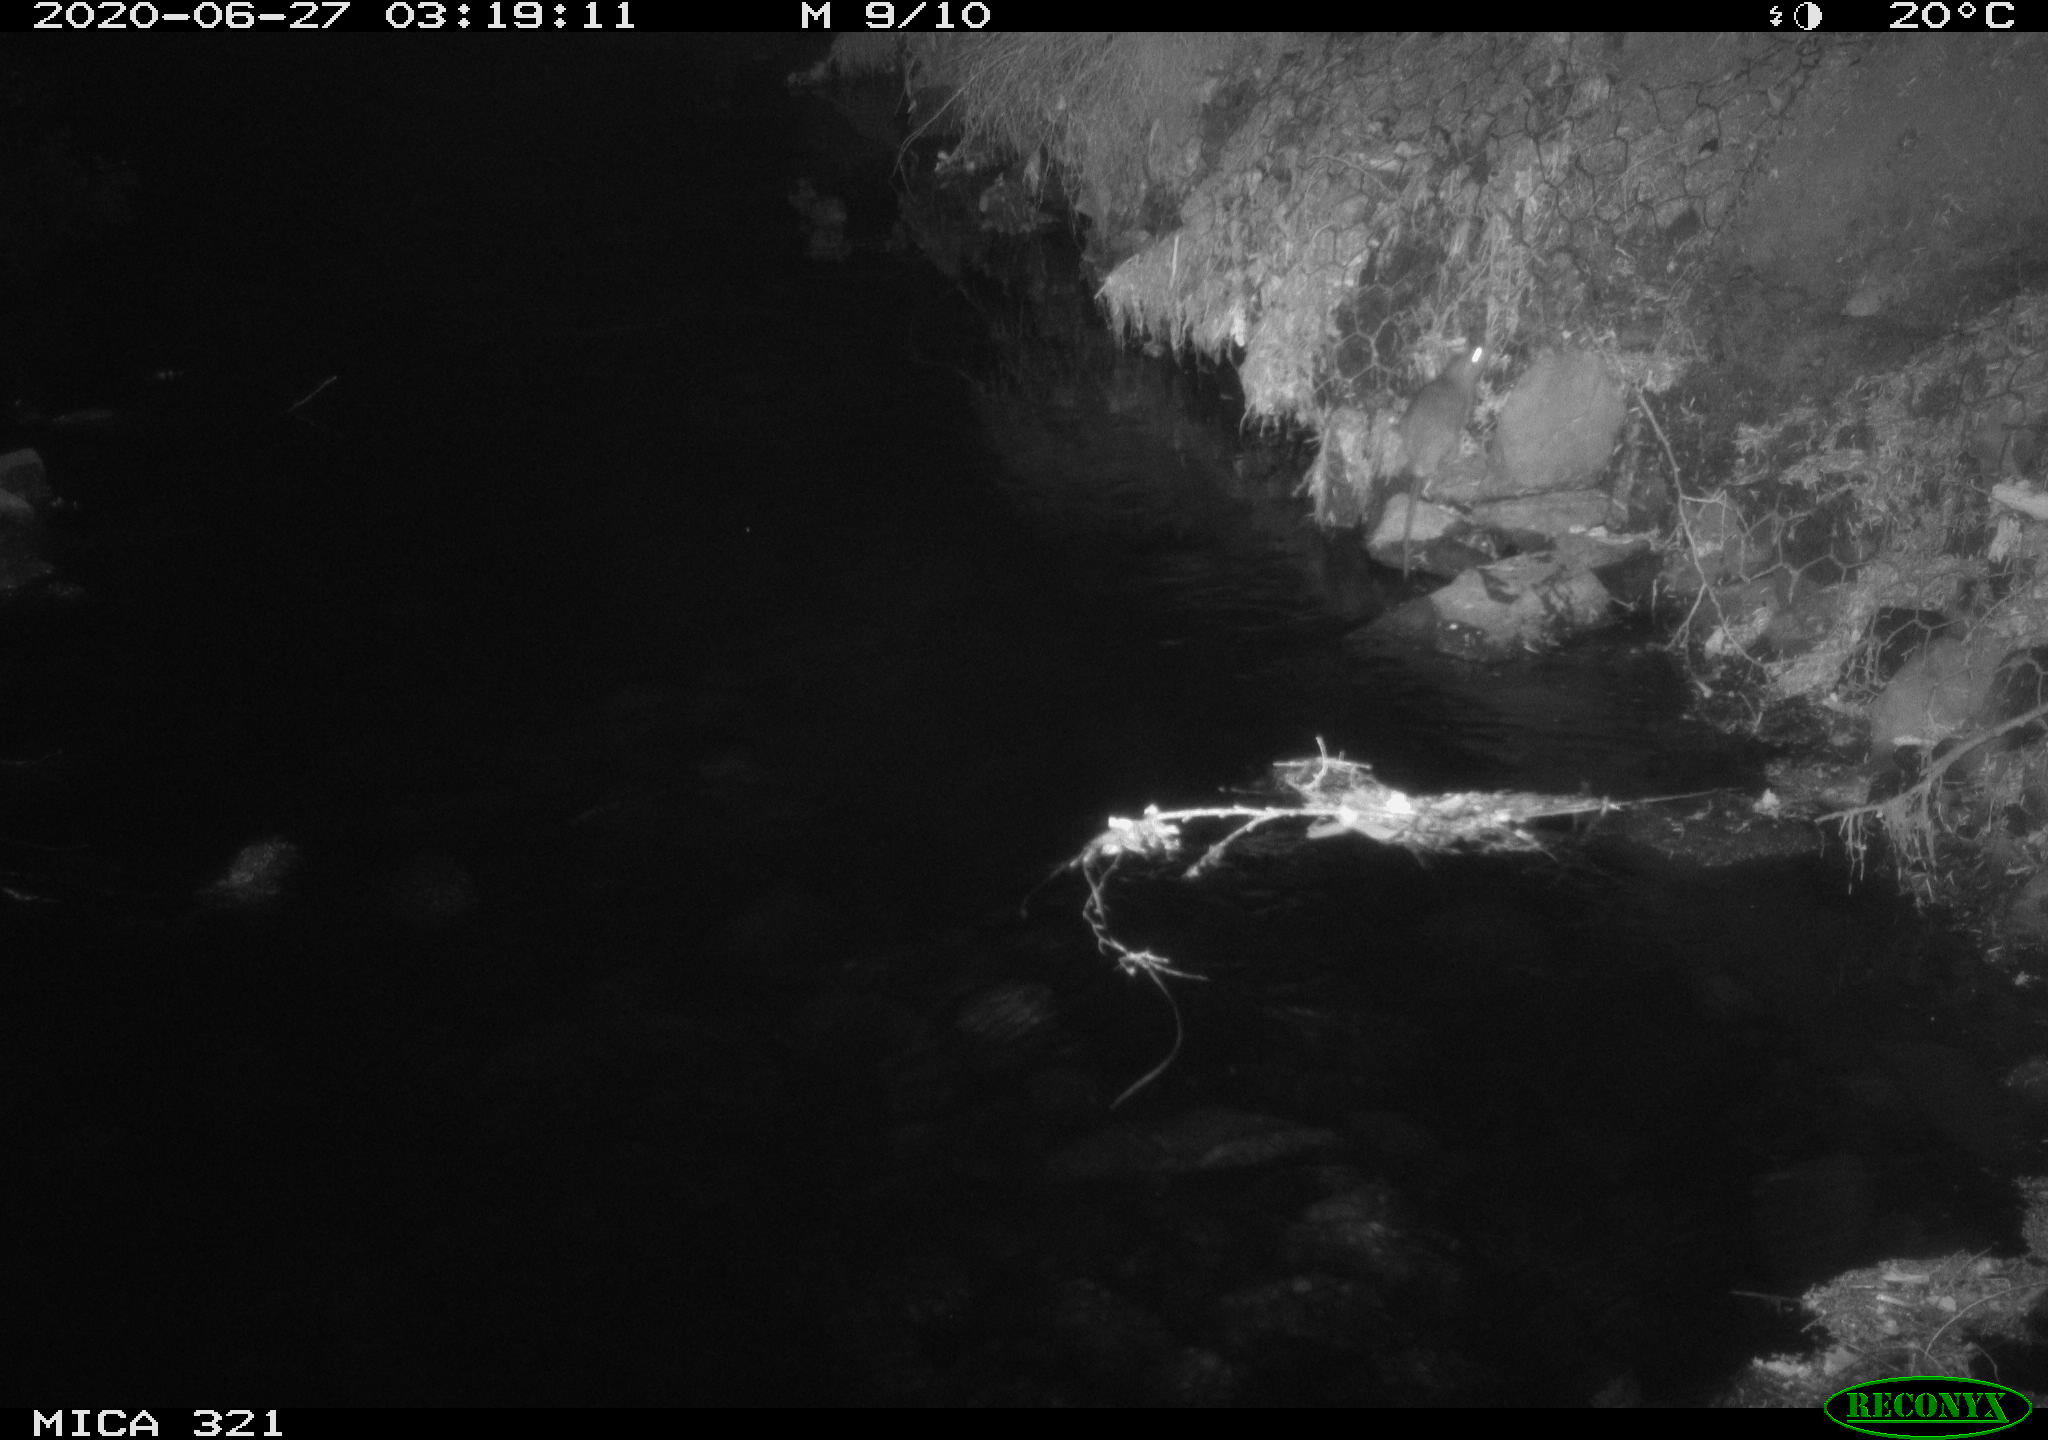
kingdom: Animalia
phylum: Chordata
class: Mammalia
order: Rodentia
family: Muridae
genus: Rattus
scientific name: Rattus norvegicus
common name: Brown rat
